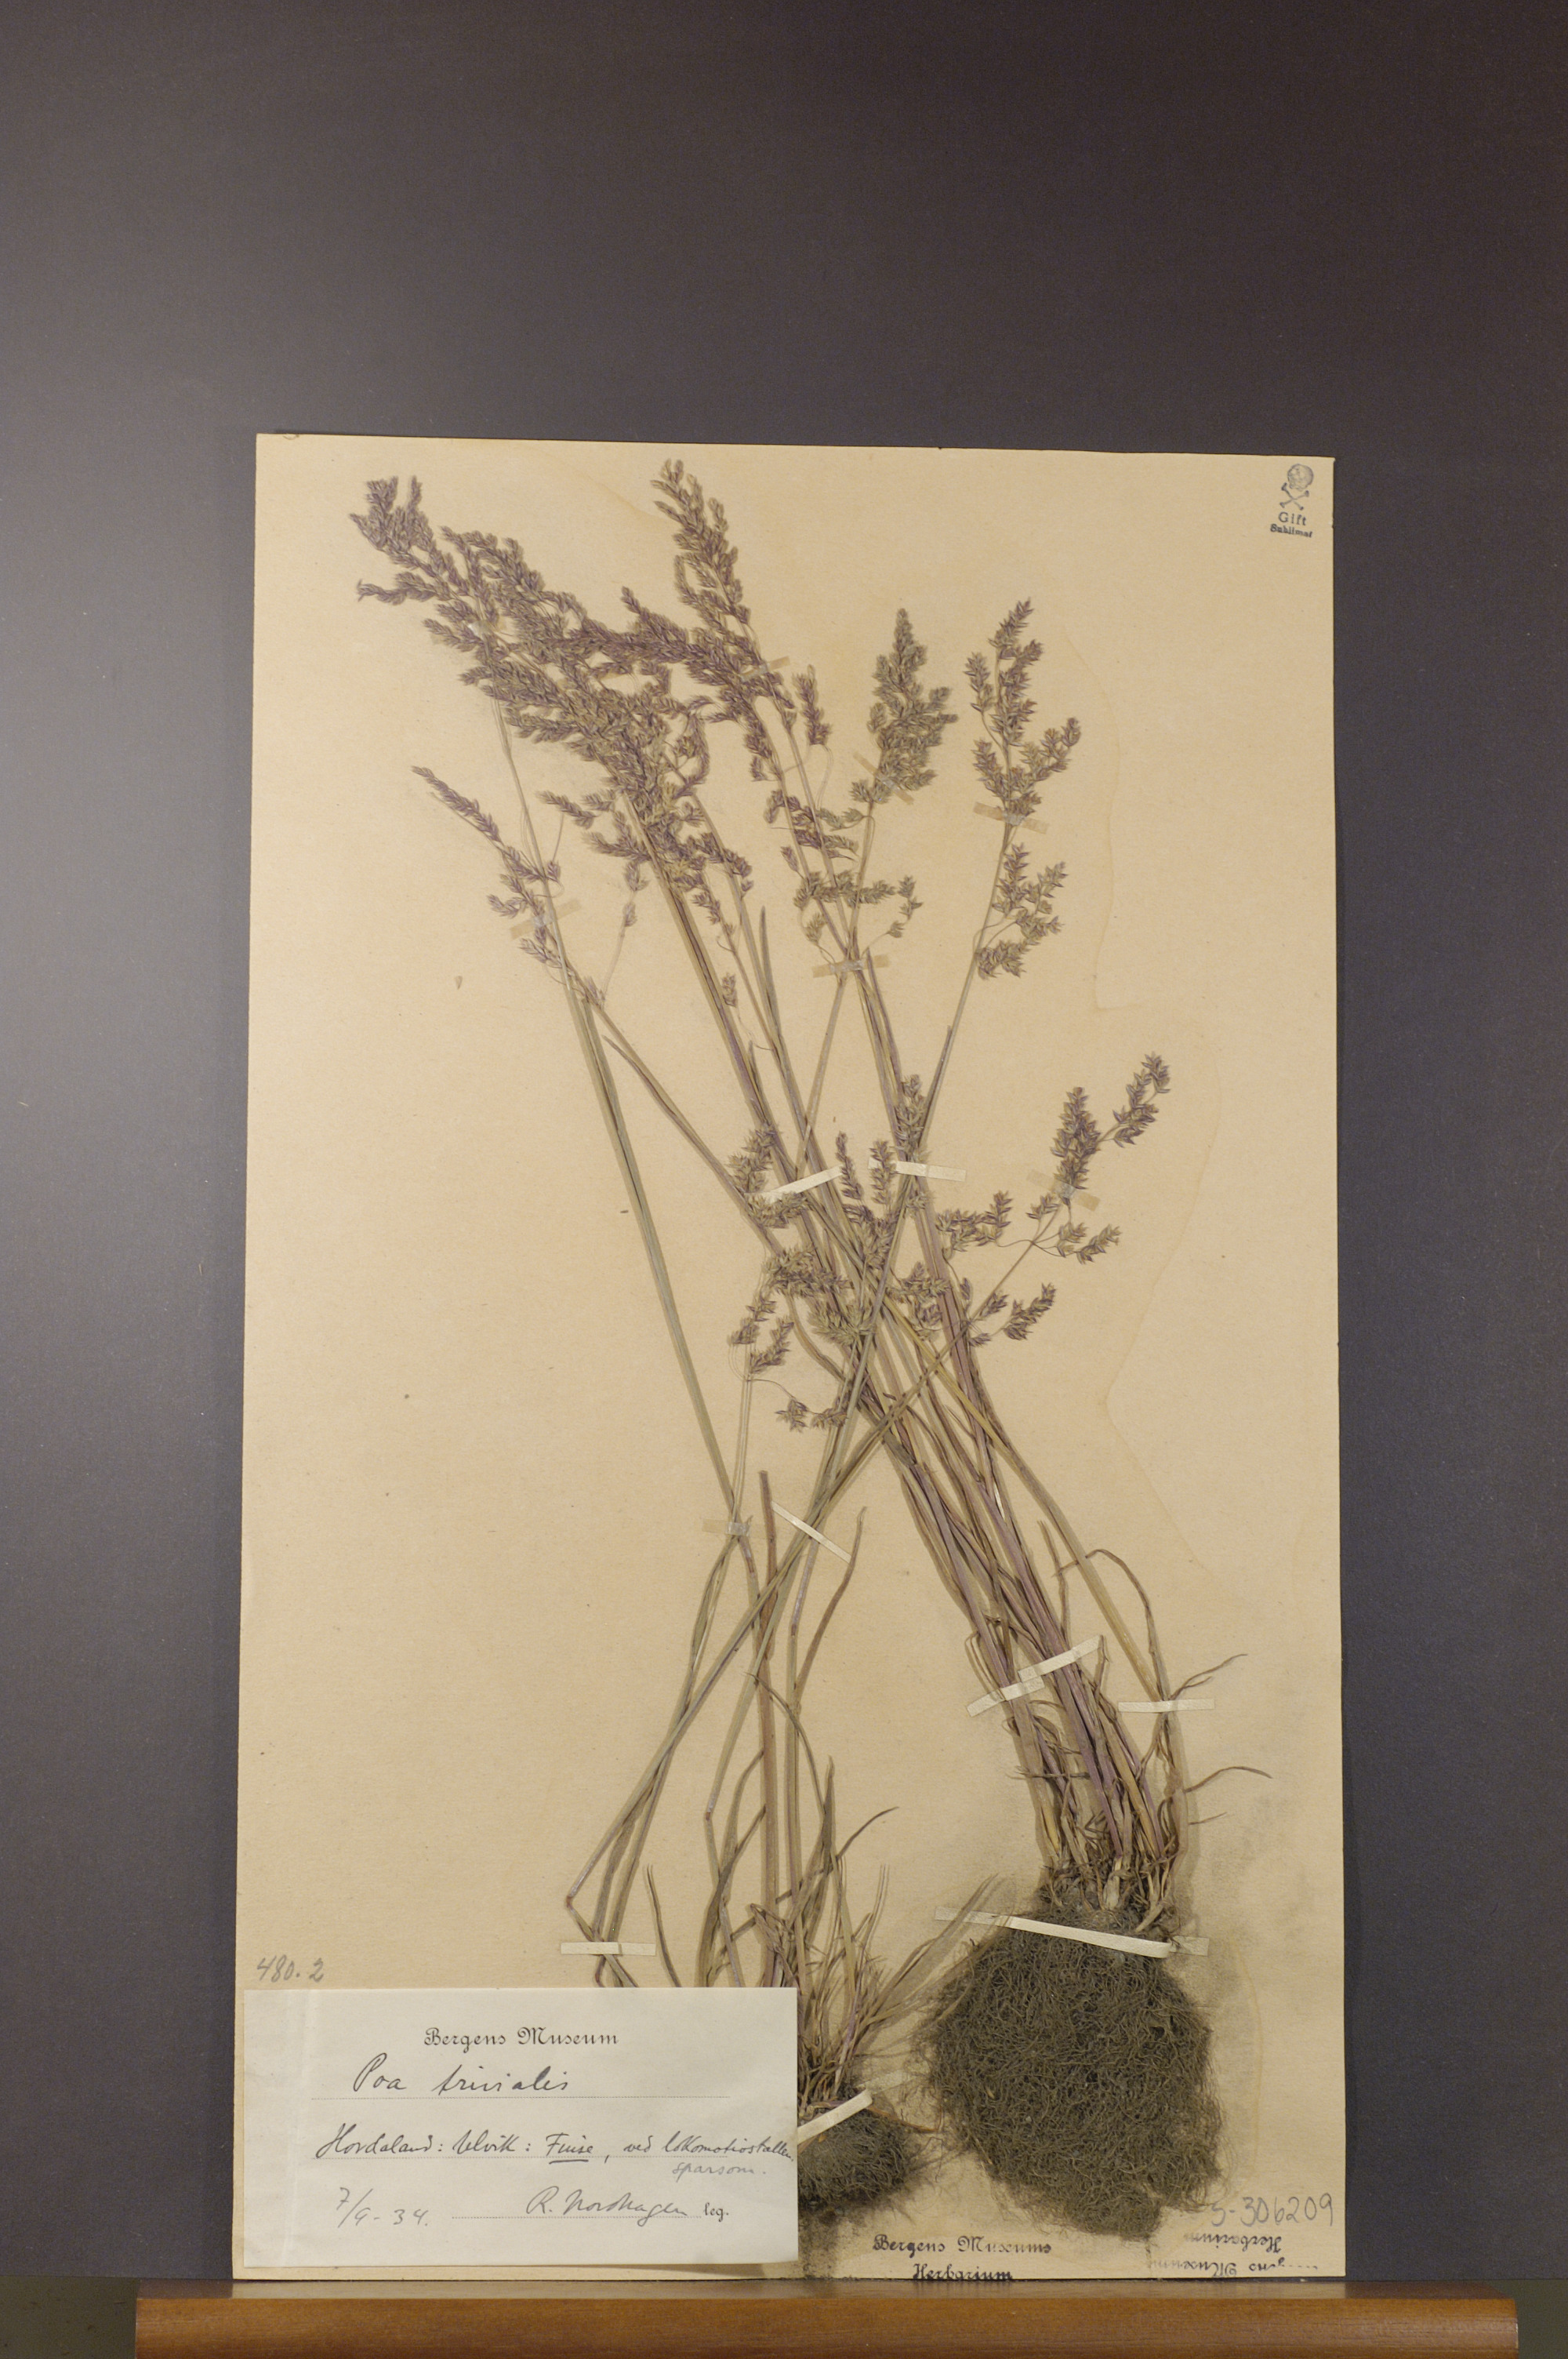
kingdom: Plantae
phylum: Tracheophyta
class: Liliopsida
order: Poales
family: Poaceae
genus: Poa
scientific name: Poa trivialis
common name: Rough bluegrass
